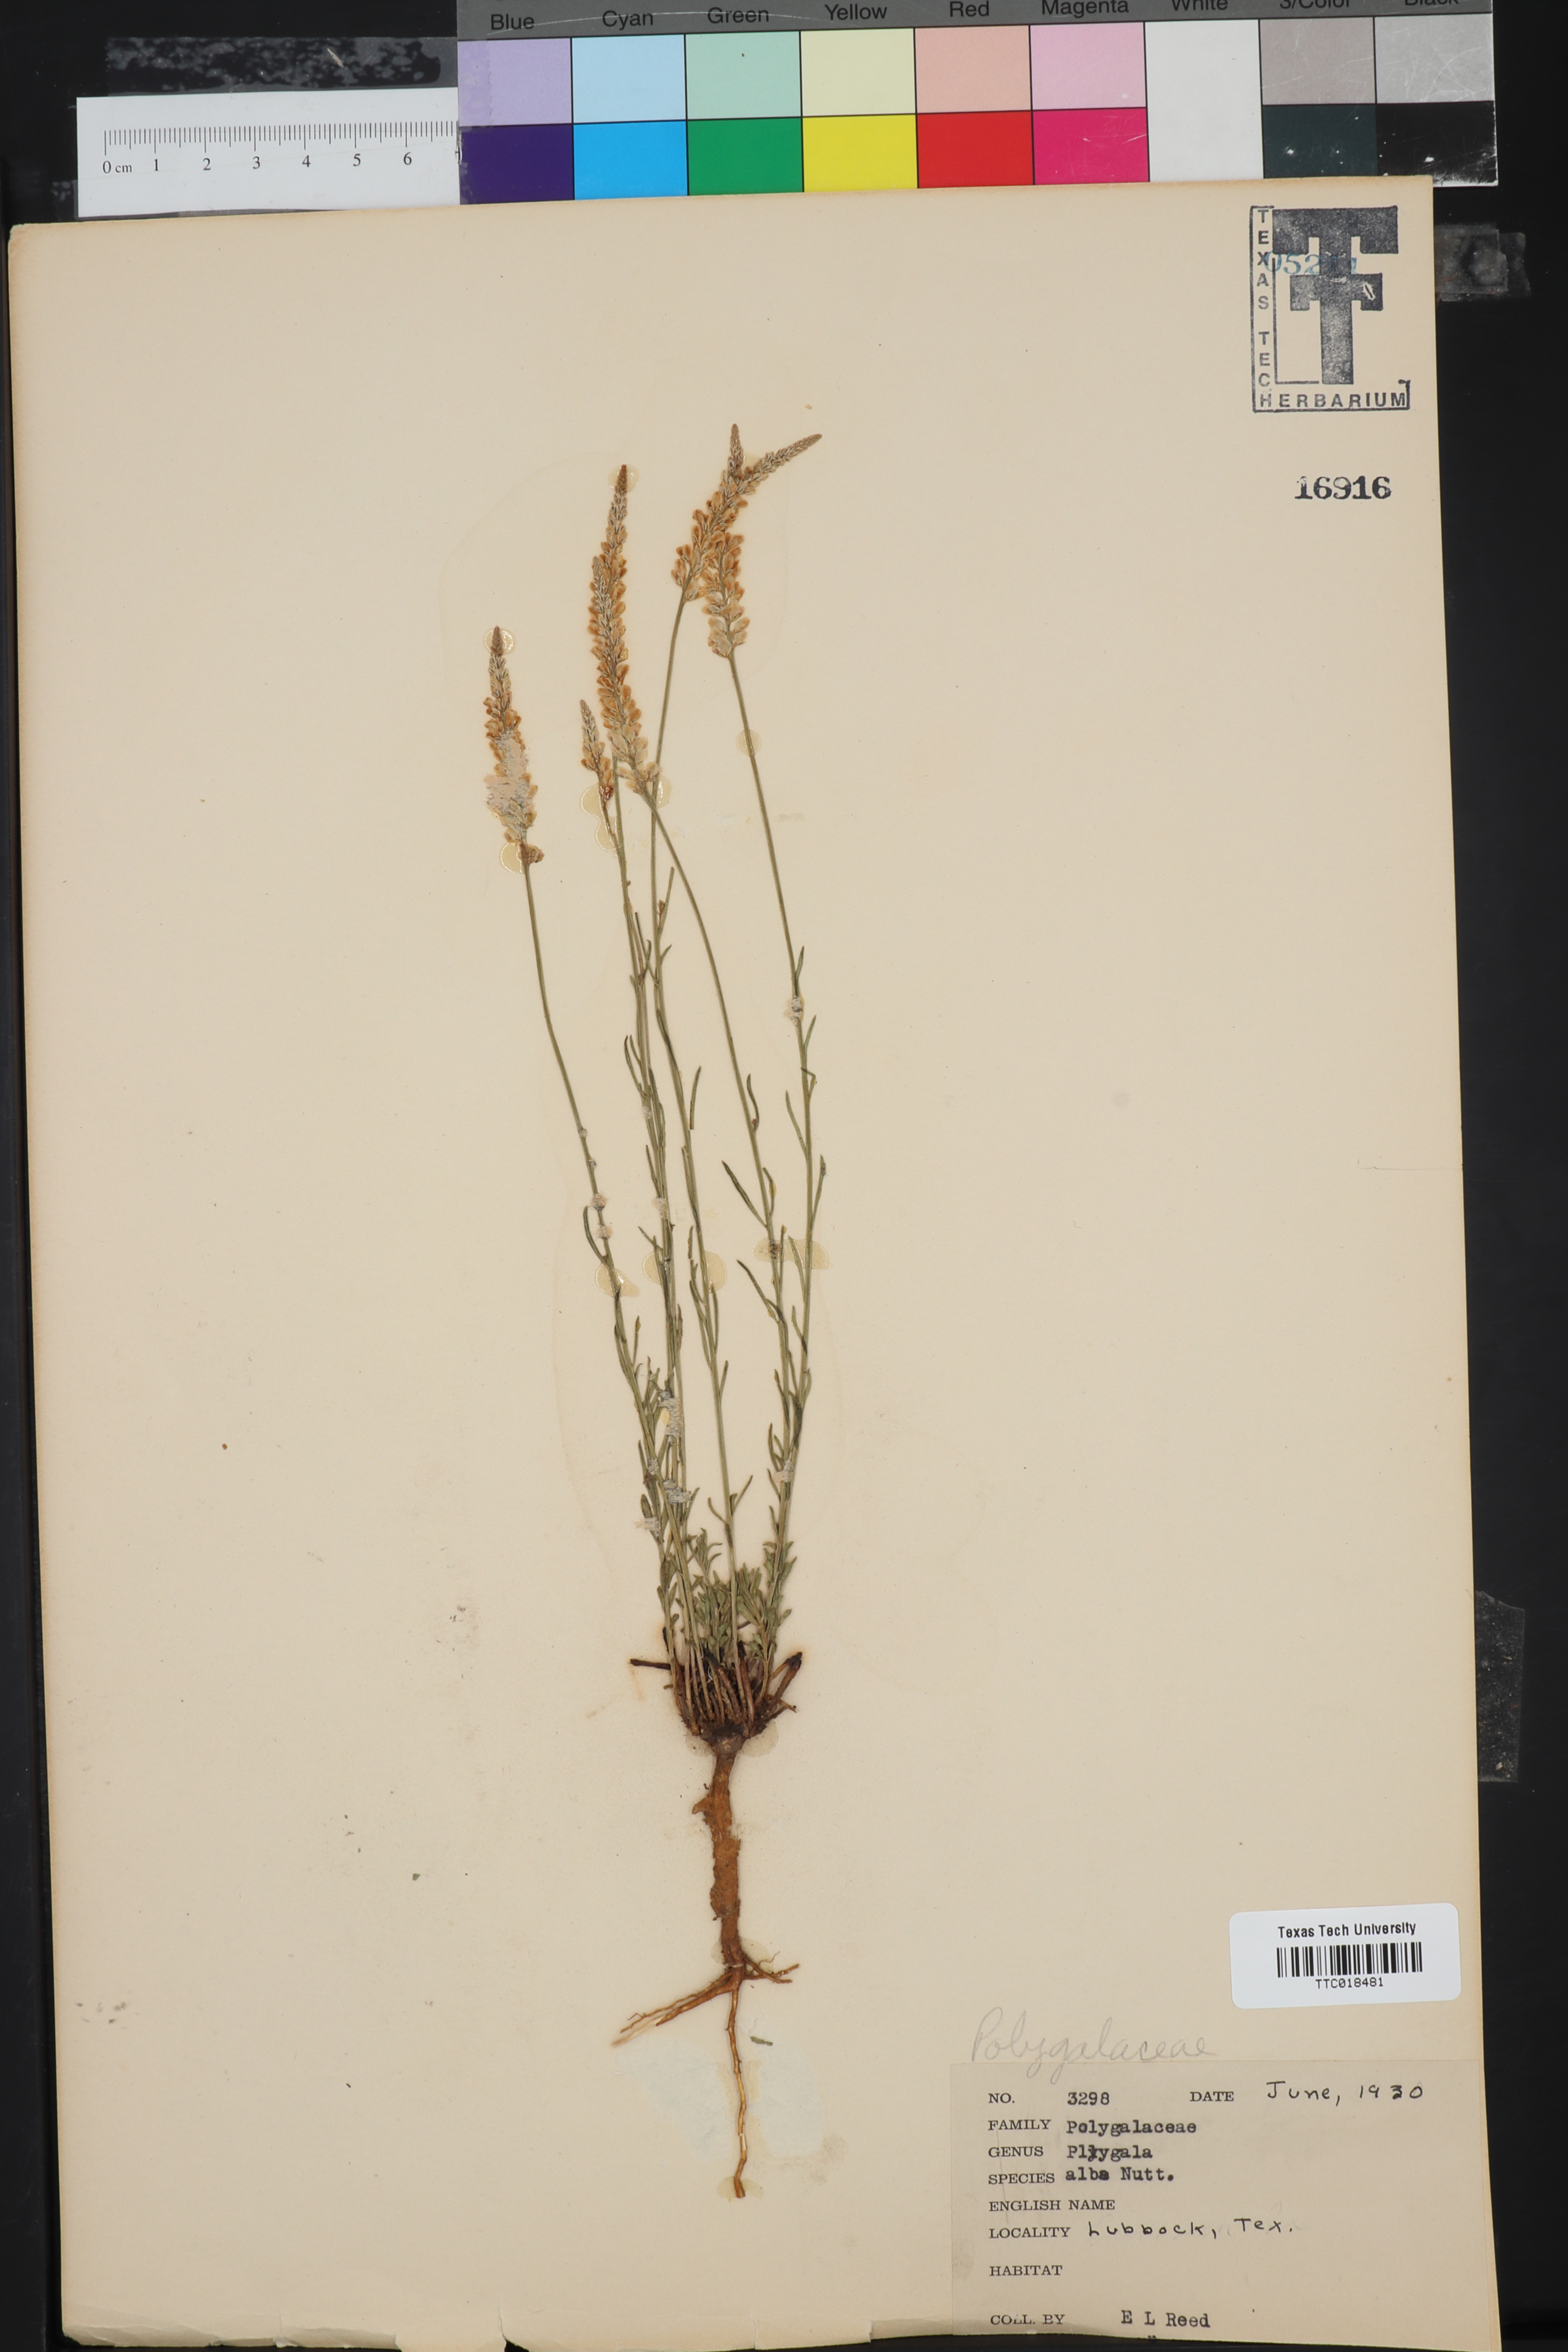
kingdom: Plantae
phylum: Tracheophyta
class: Magnoliopsida
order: Fabales
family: Polygalaceae
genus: Polygala
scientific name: Polygala alba
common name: White milkwort
